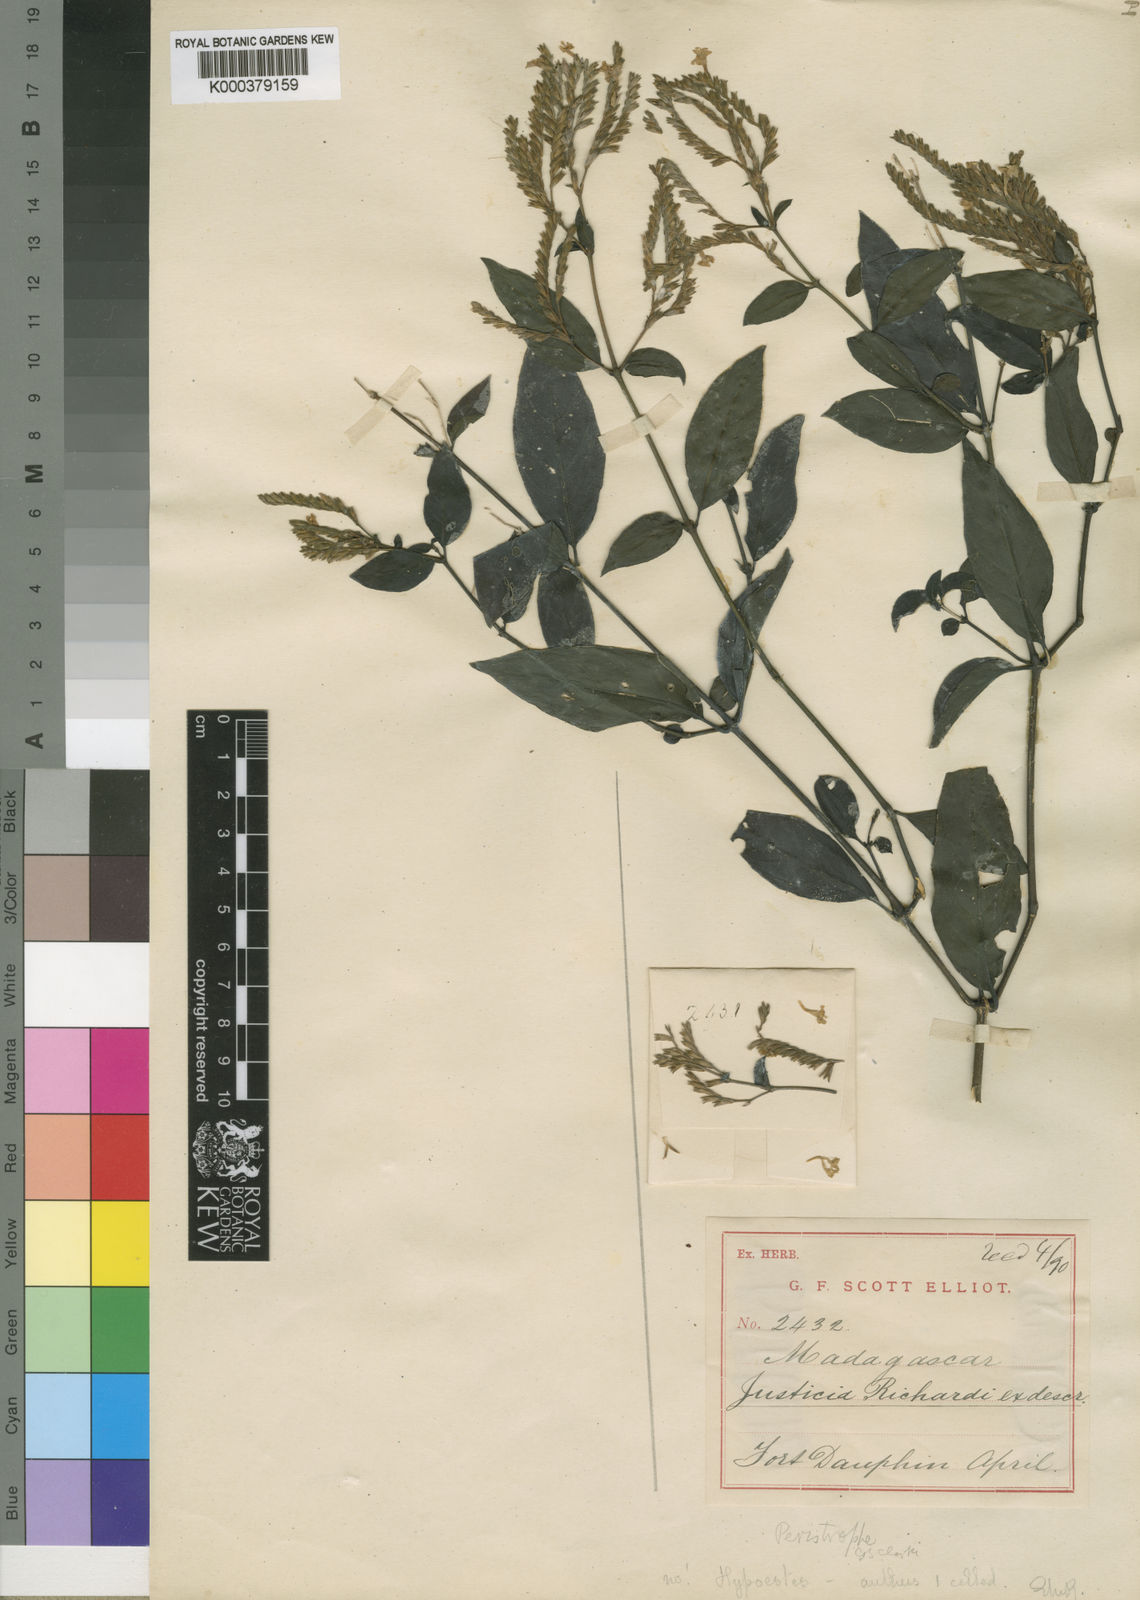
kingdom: Plantae
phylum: Tracheophyta
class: Magnoliopsida
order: Lamiales
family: Acanthaceae
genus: Hypoestes
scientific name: Hypoestes transversa
